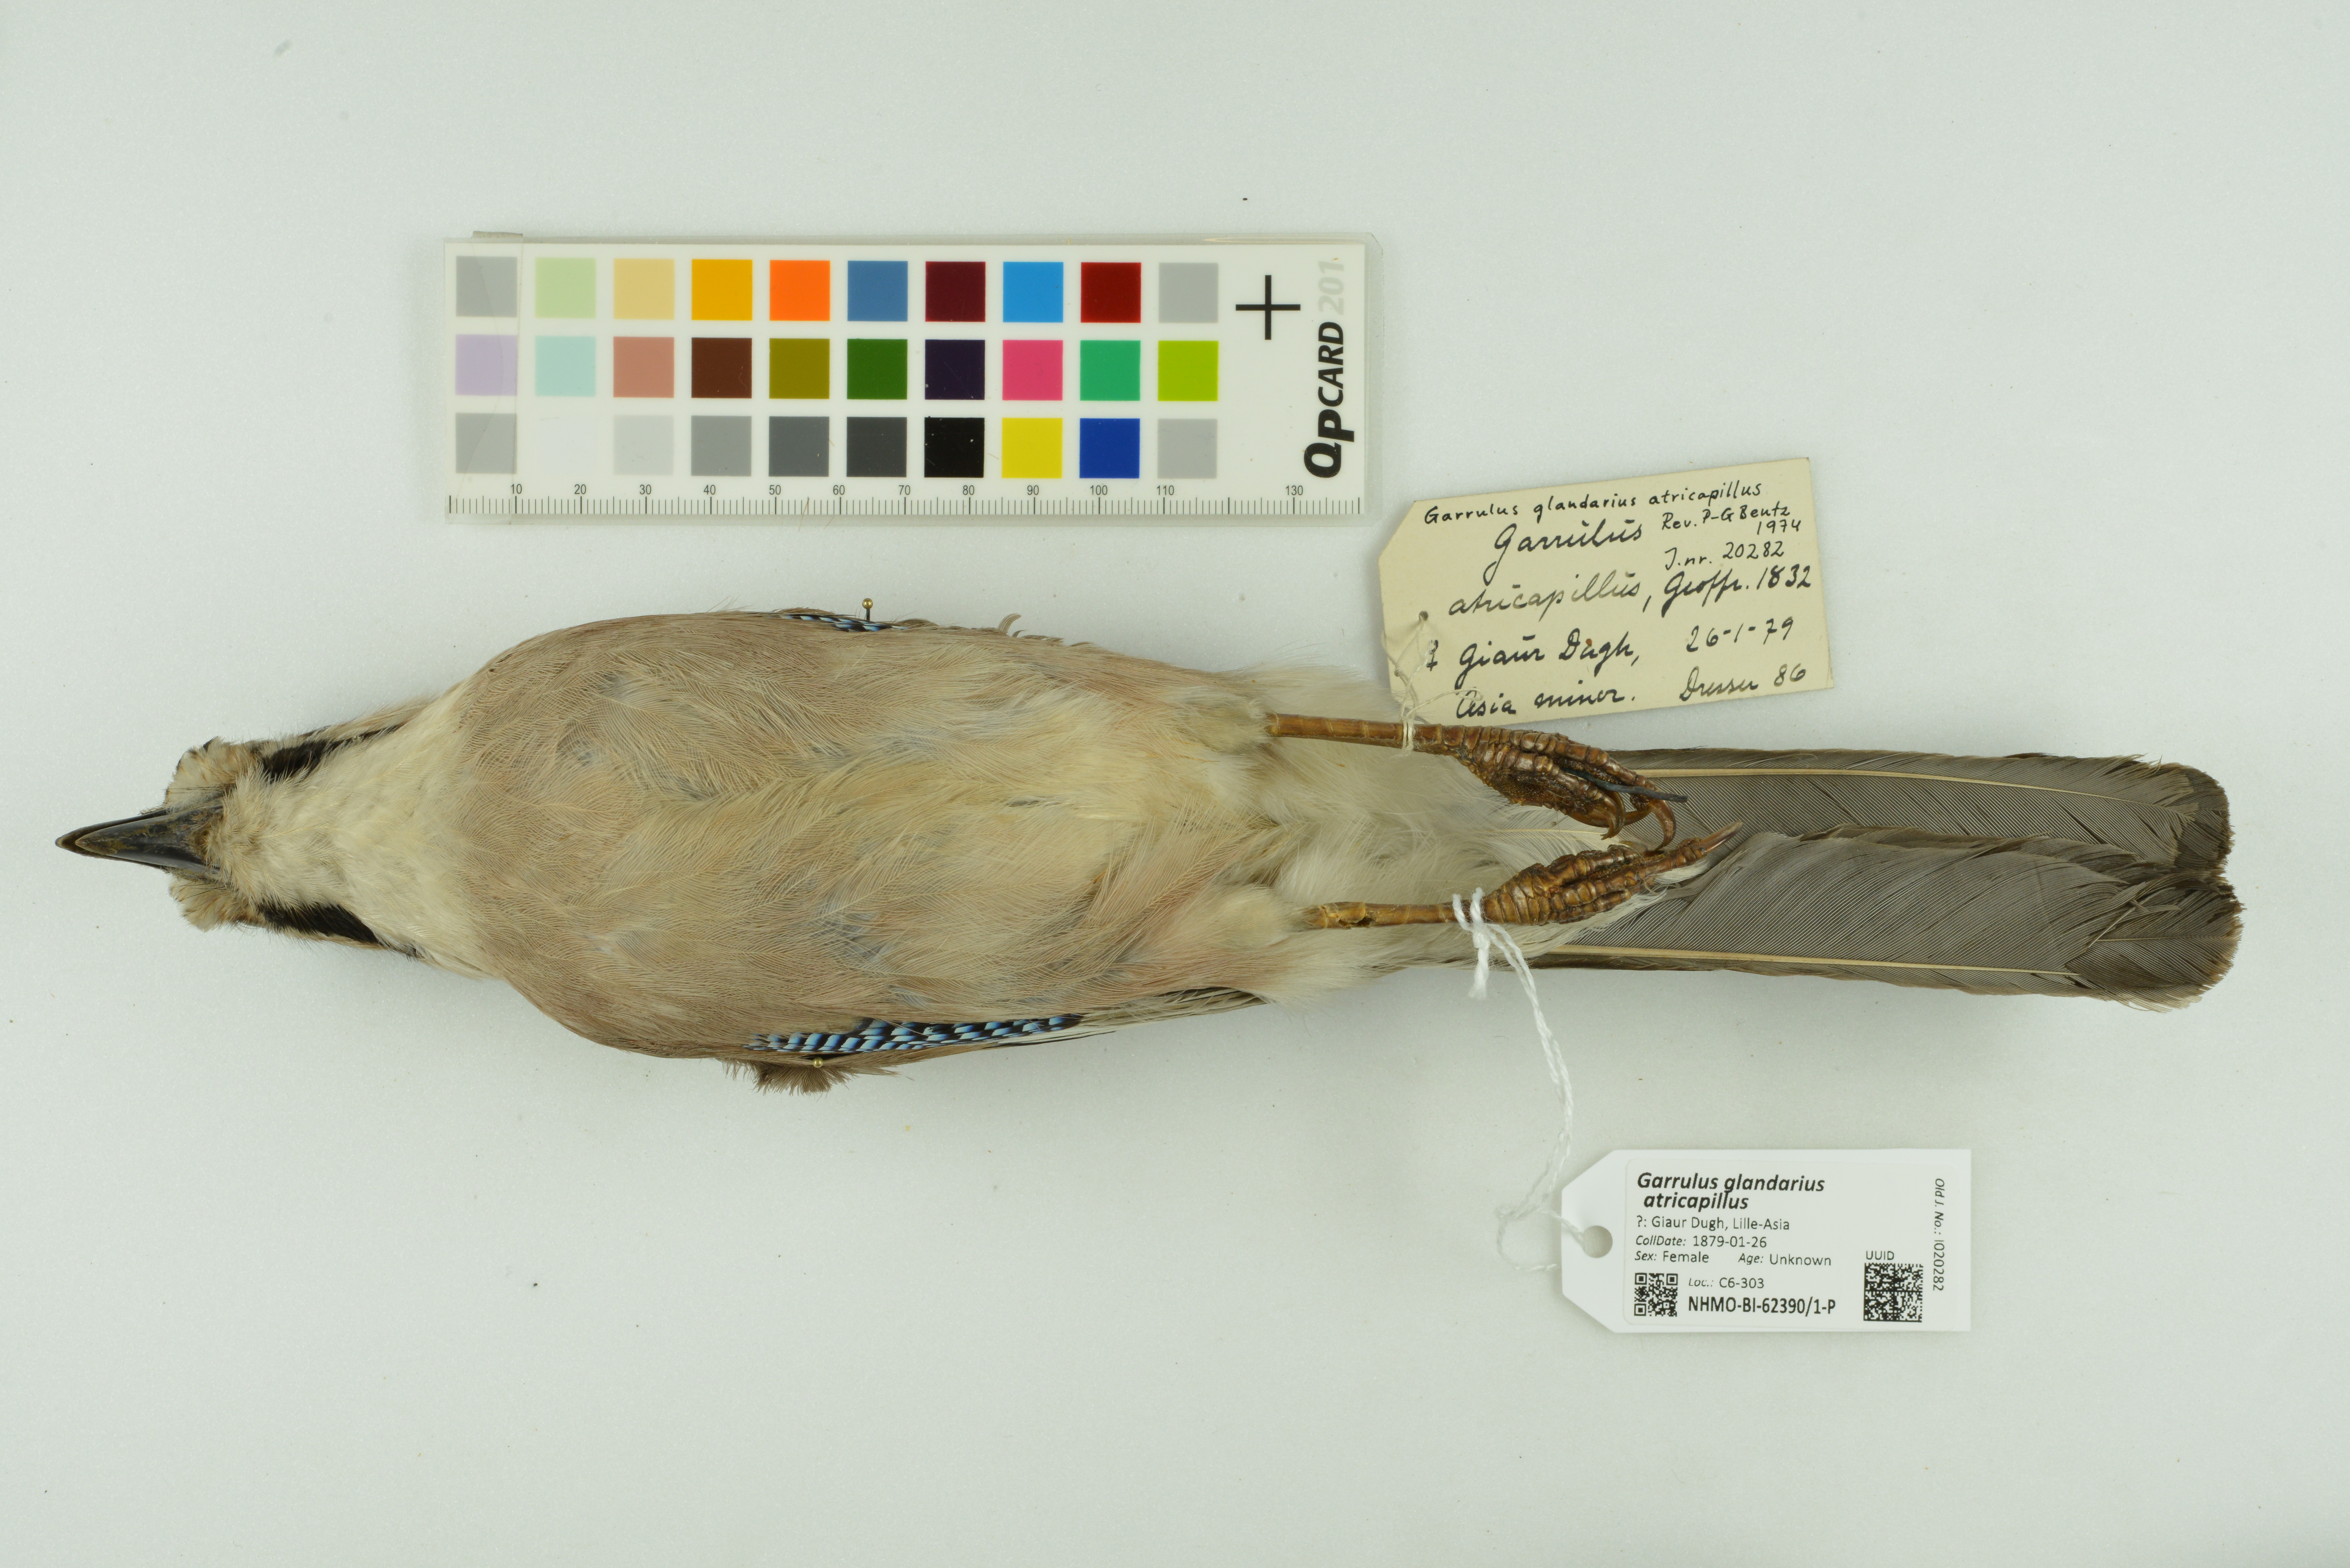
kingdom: Animalia
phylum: Chordata
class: Aves
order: Passeriformes
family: Corvidae
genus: Garrulus
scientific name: Garrulus glandarius
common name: Eurasian jay
